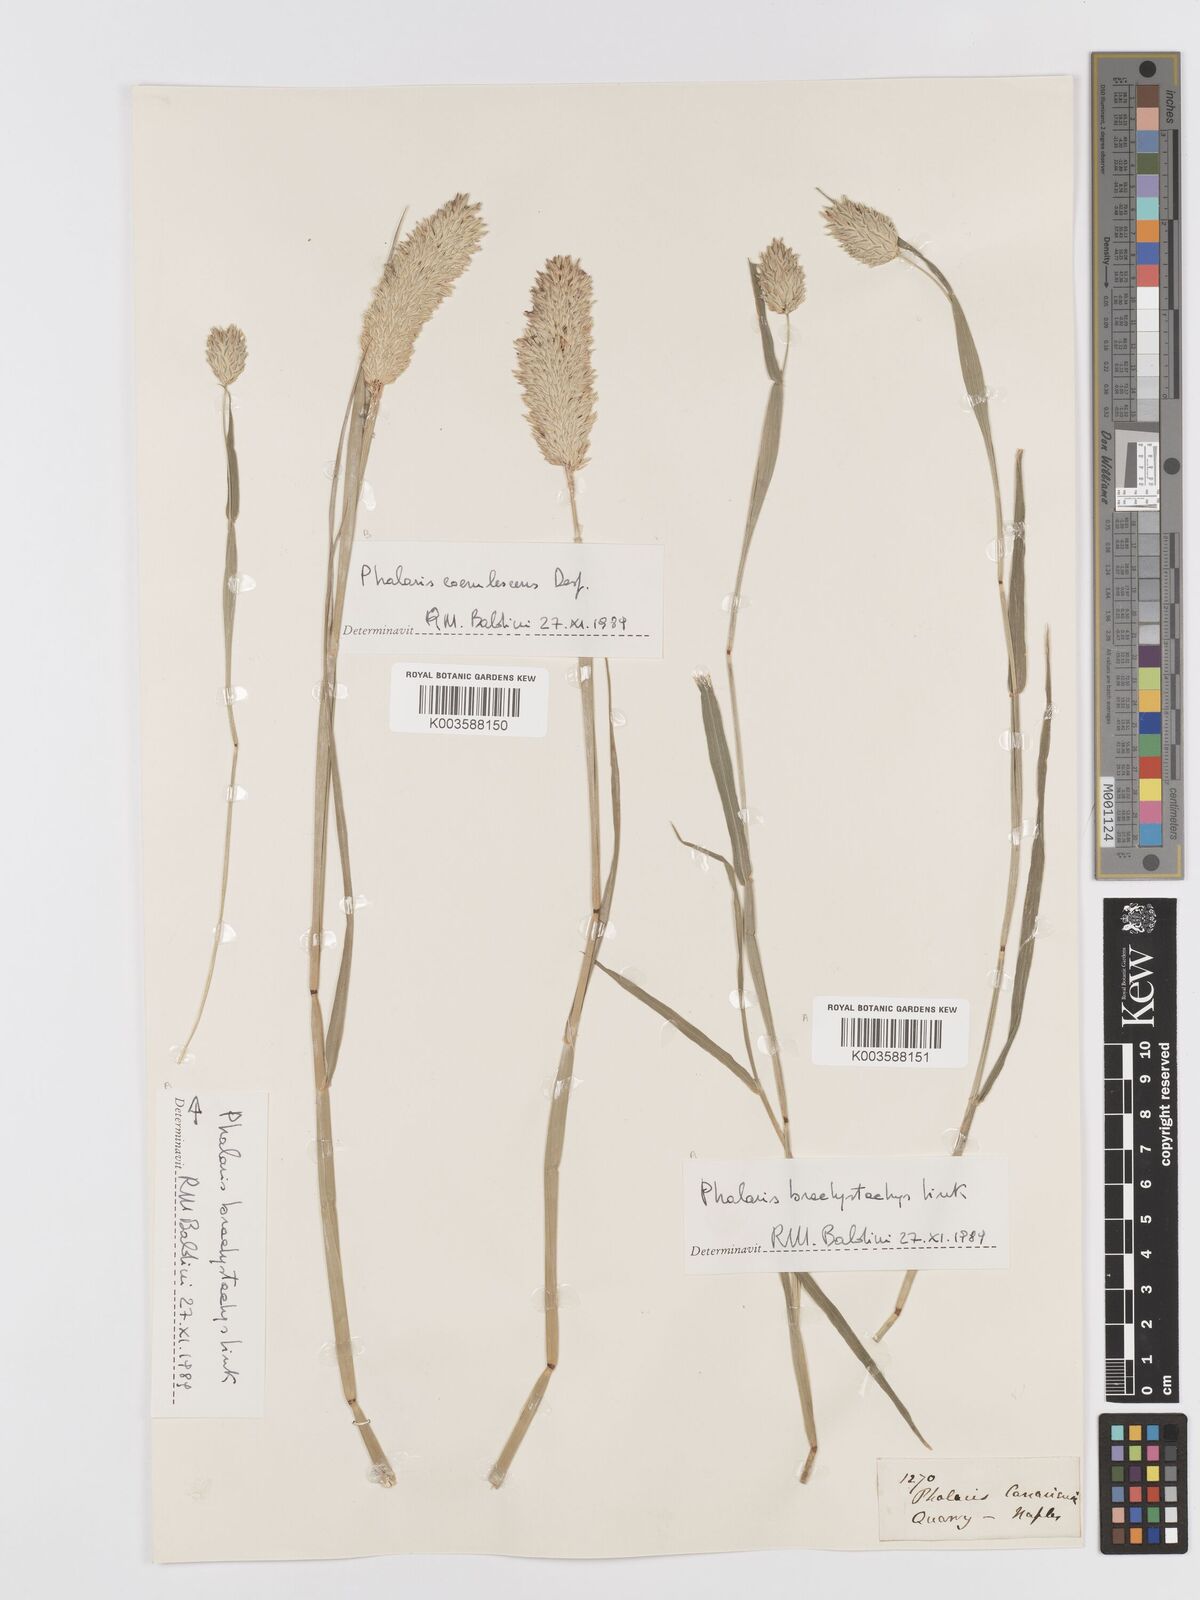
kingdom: Plantae
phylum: Tracheophyta
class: Liliopsida
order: Poales
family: Poaceae
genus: Phalaris
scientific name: Phalaris canariensis
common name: Annual canarygrass
